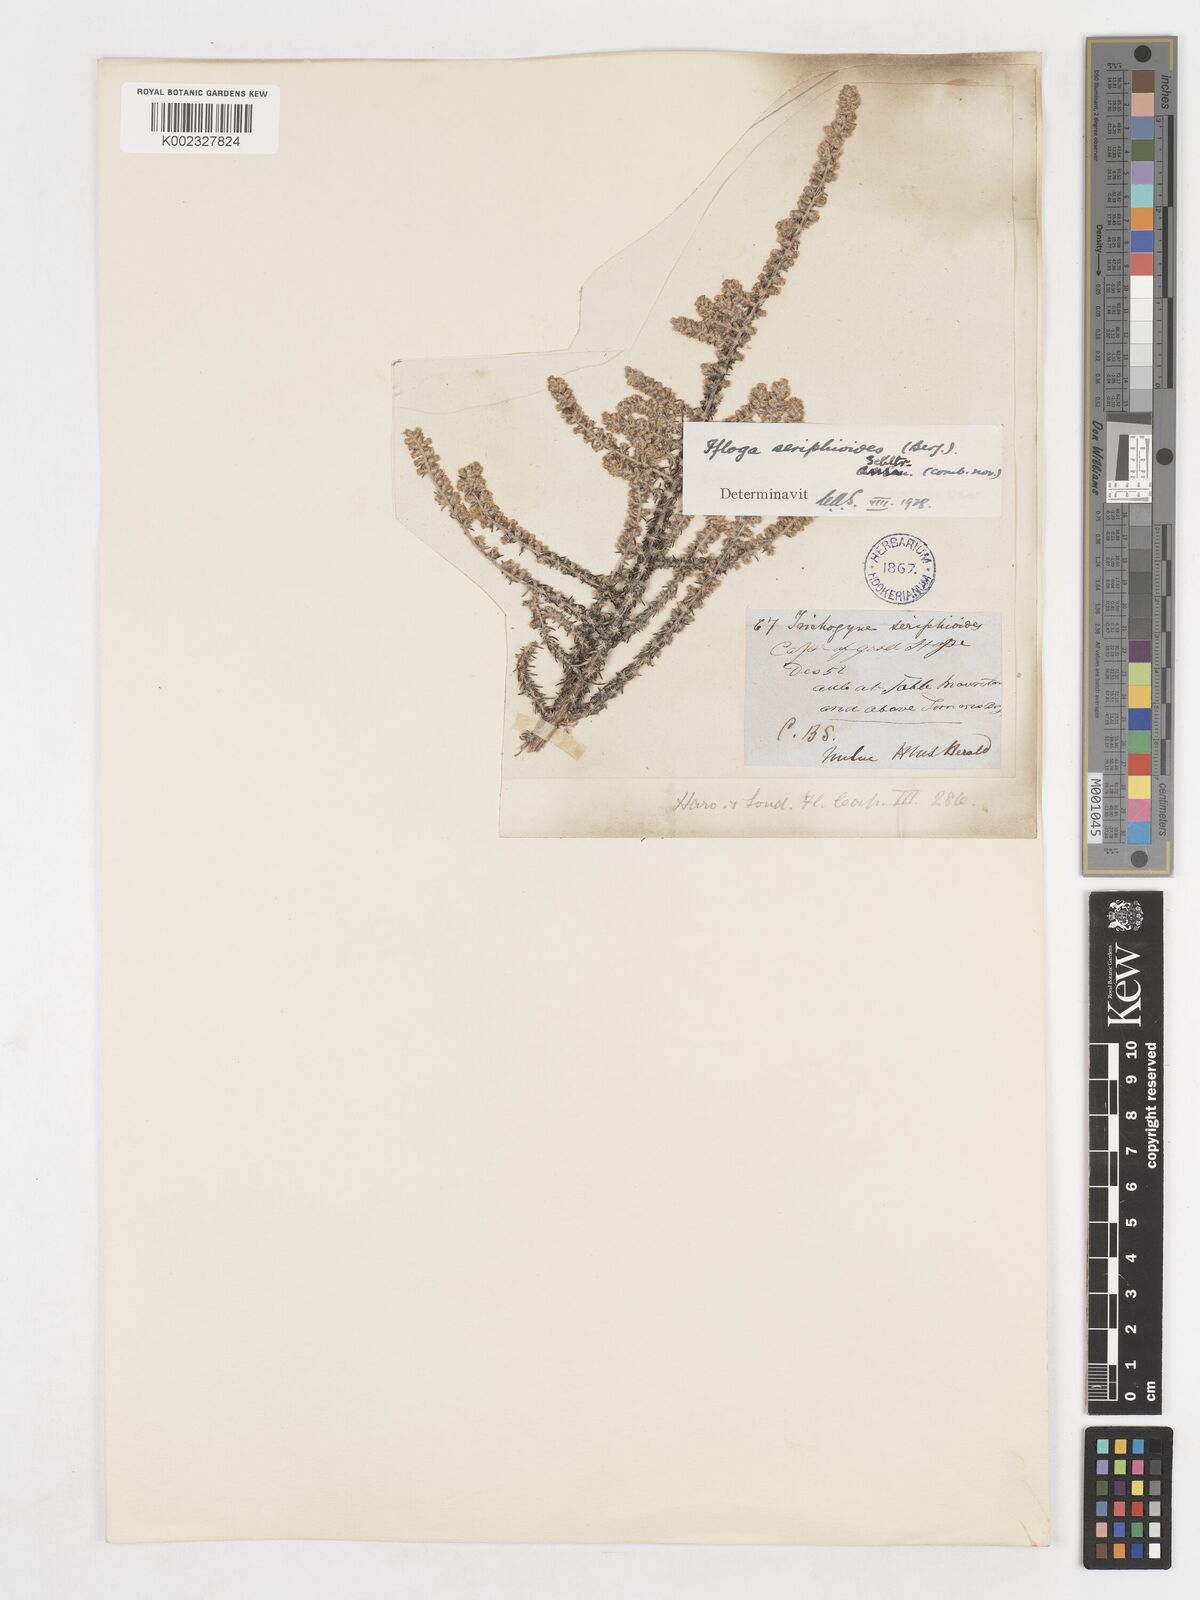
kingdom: Plantae
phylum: Tracheophyta
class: Magnoliopsida
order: Asterales
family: Asteraceae
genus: Ifloga
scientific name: Ifloga ambigua
